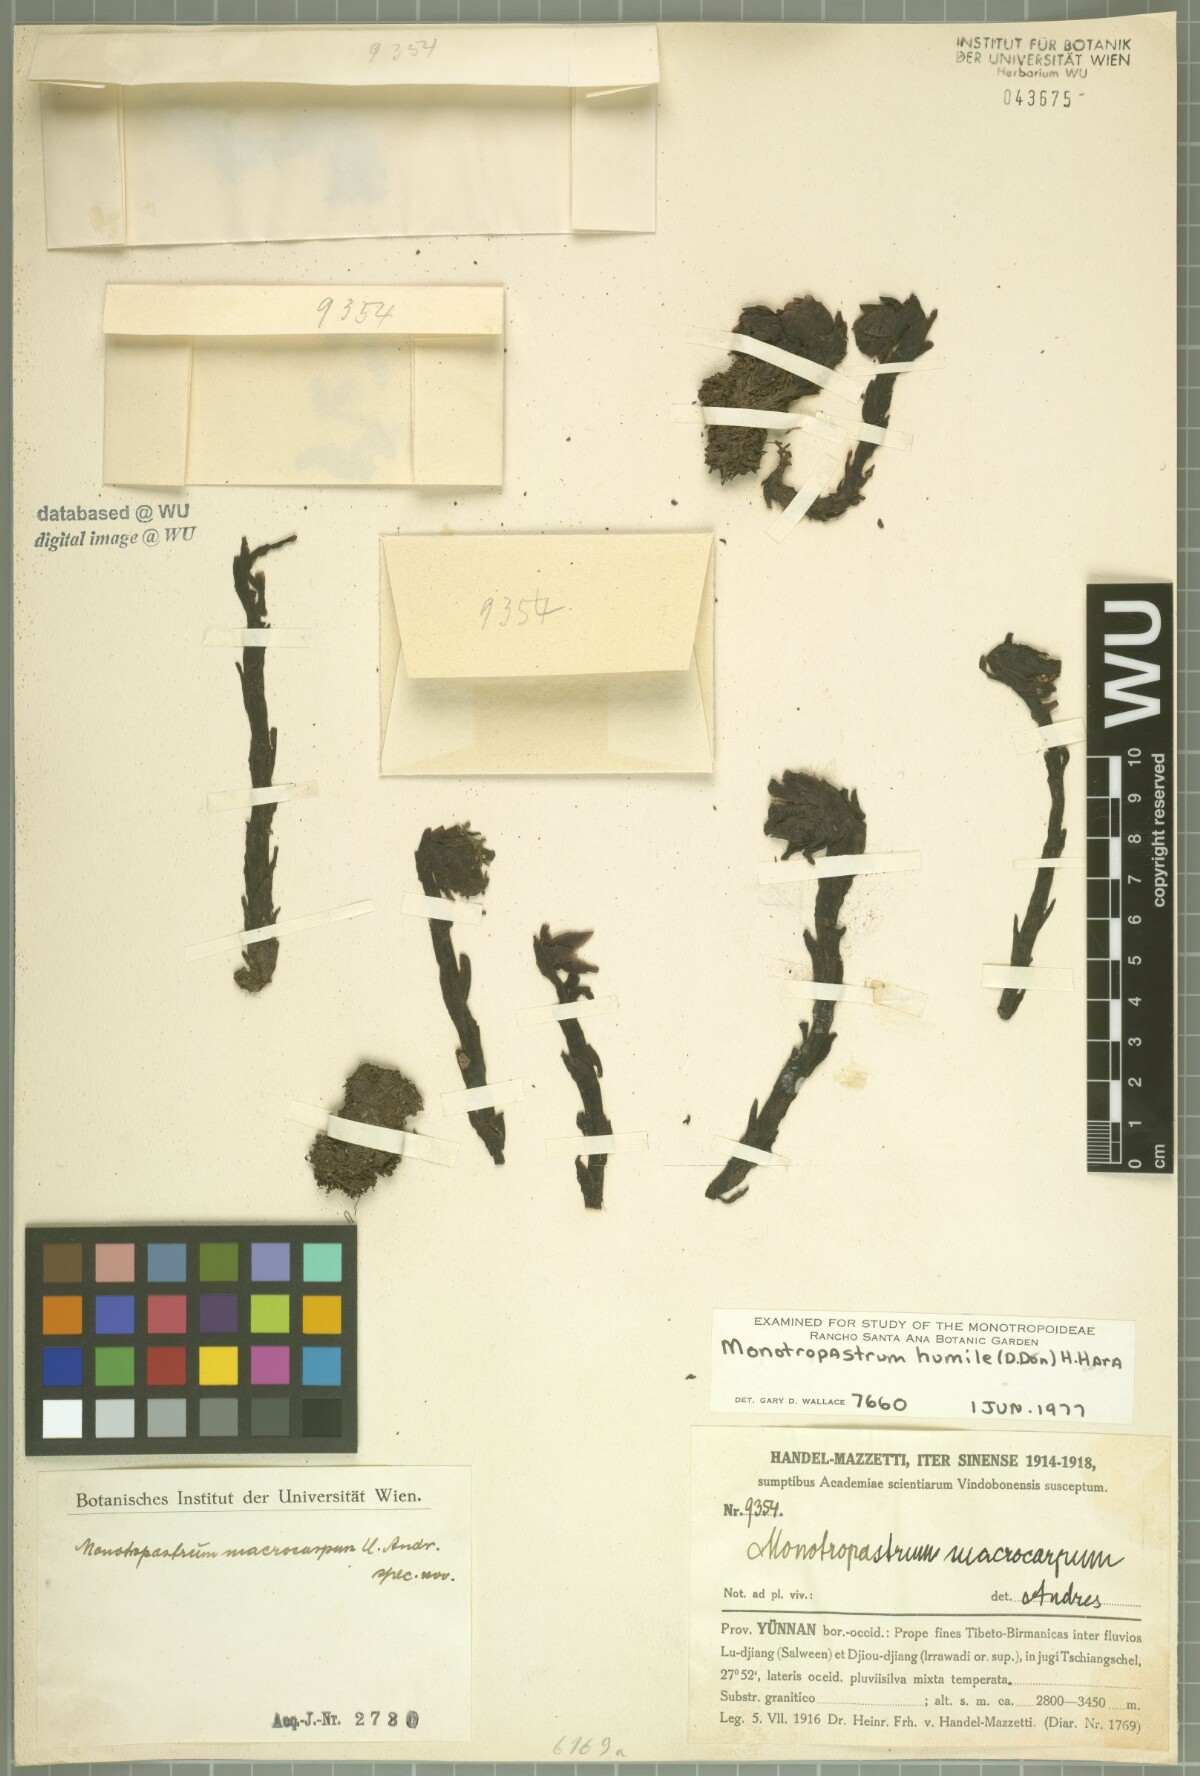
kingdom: Plantae
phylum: Tracheophyta
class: Magnoliopsida
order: Ericales
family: Ericaceae
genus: Monotropastrum
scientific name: Monotropastrum humile
